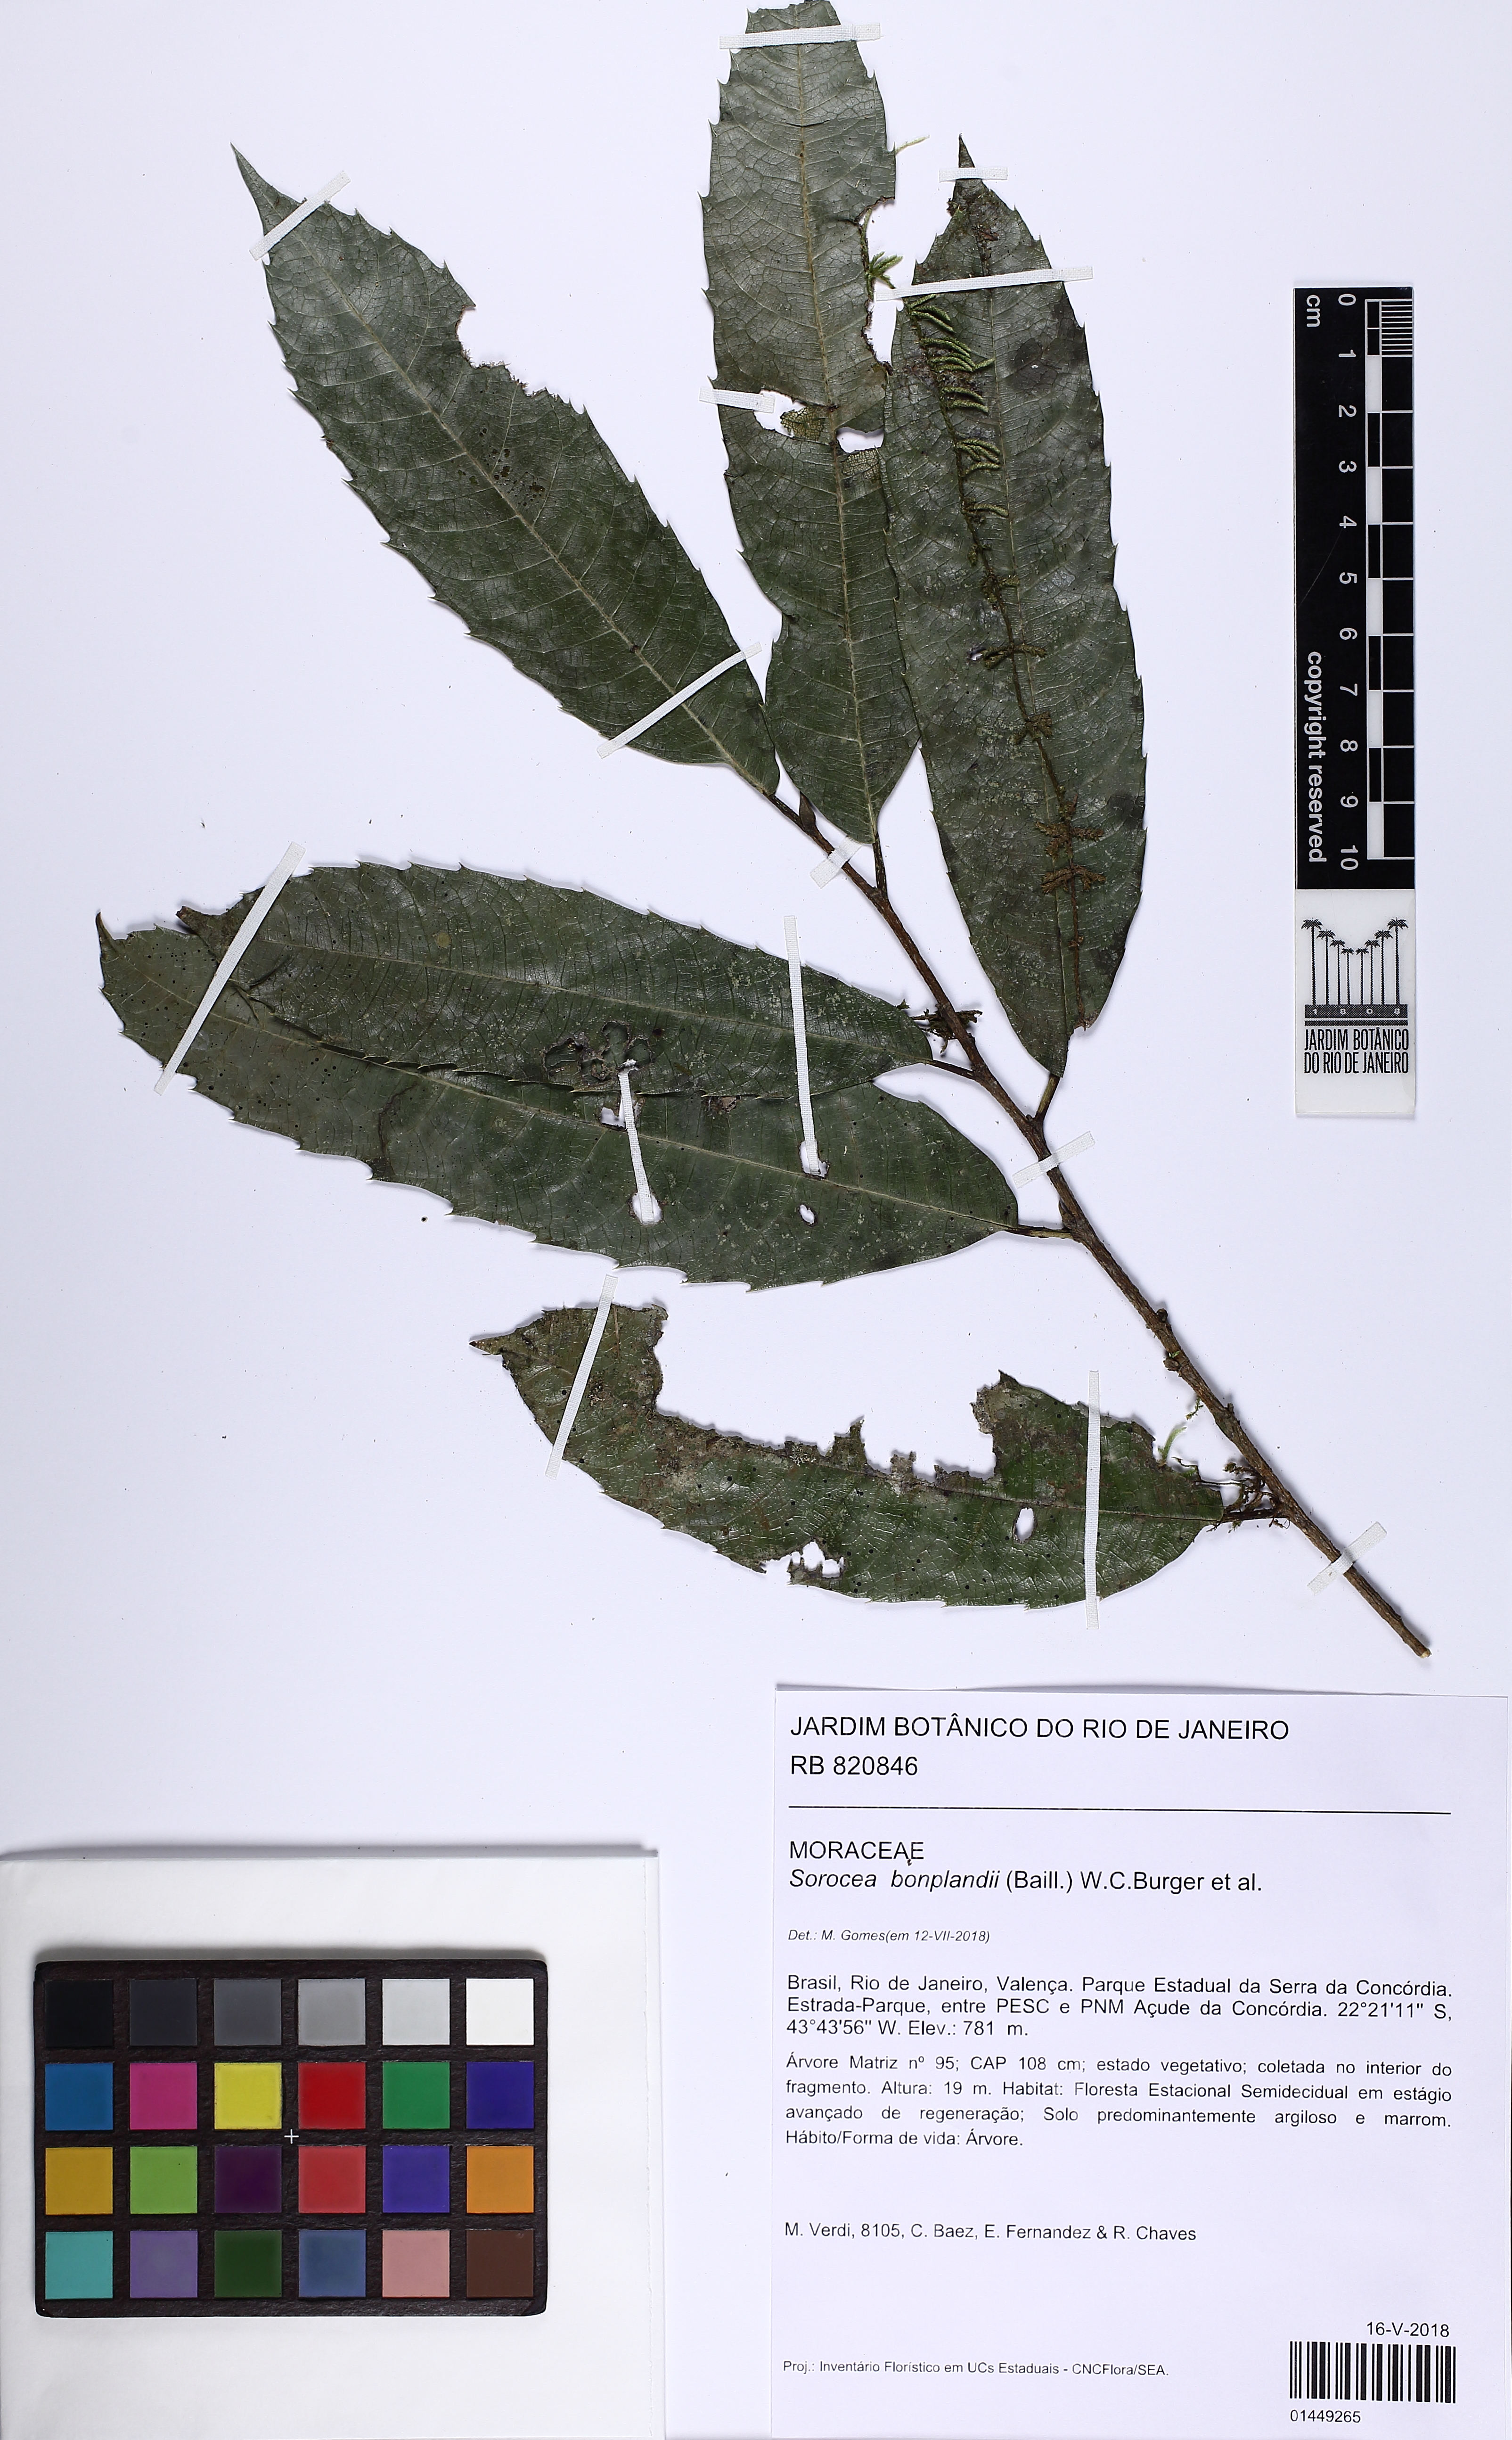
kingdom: Plantae
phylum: Tracheophyta
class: Magnoliopsida
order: Rosales
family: Moraceae
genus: Sorocea
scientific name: Sorocea bonplandii
